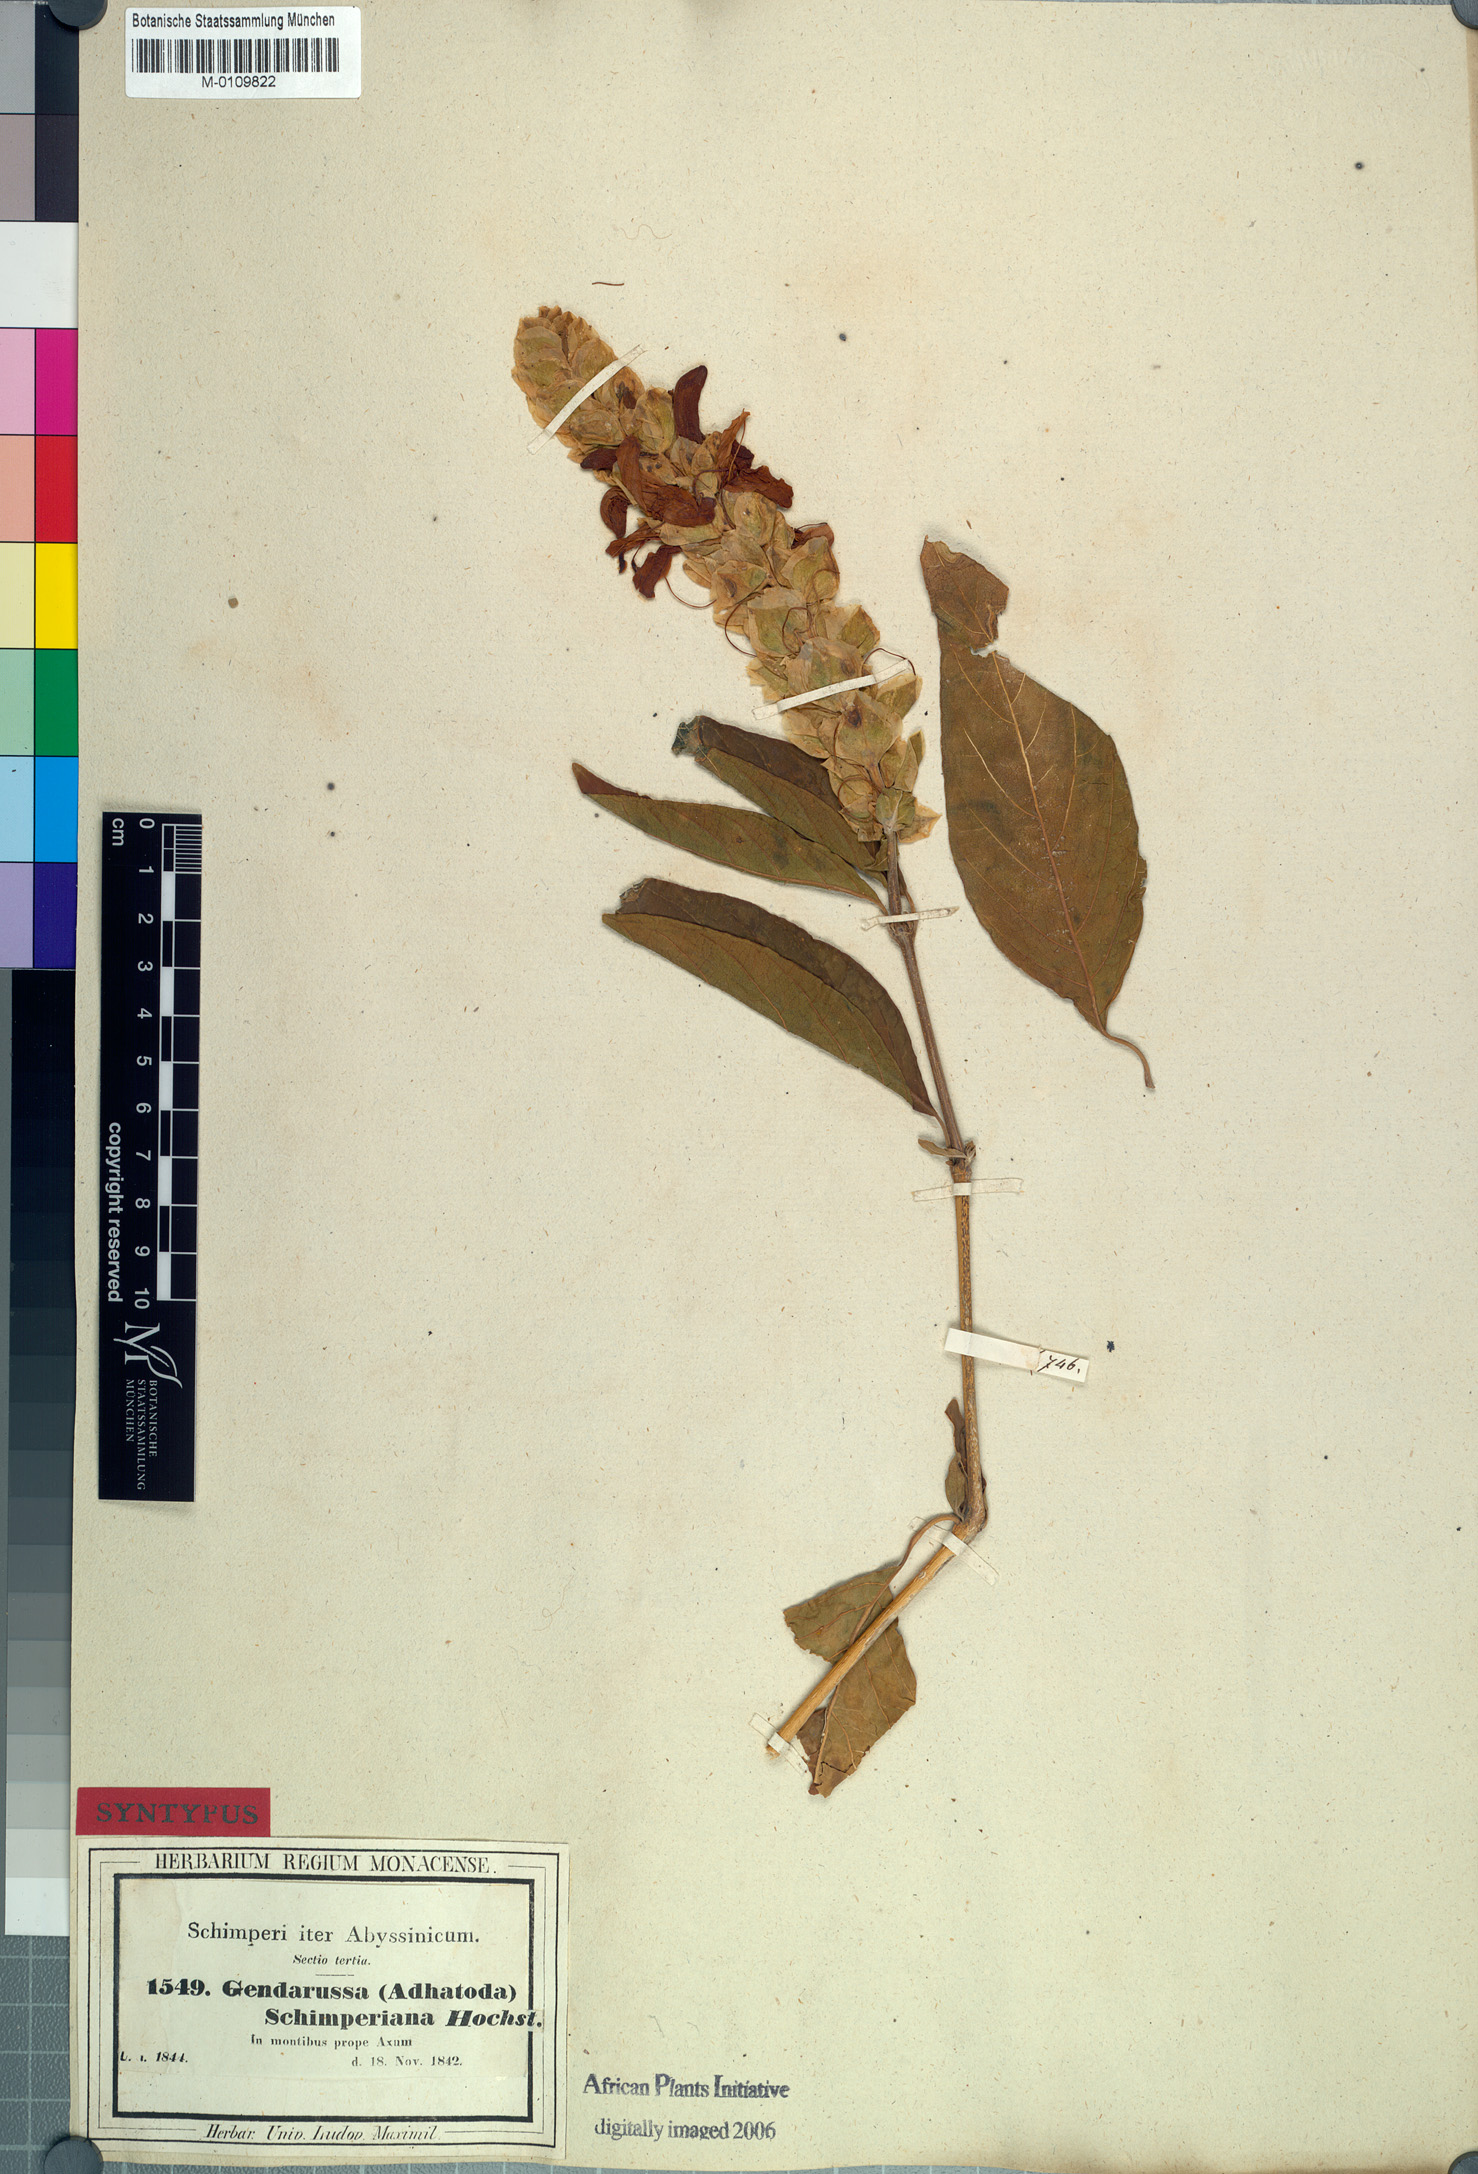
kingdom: Plantae
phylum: Tracheophyta
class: Magnoliopsida
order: Lamiales
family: Acanthaceae
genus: Justicia
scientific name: Justicia schimperiana
